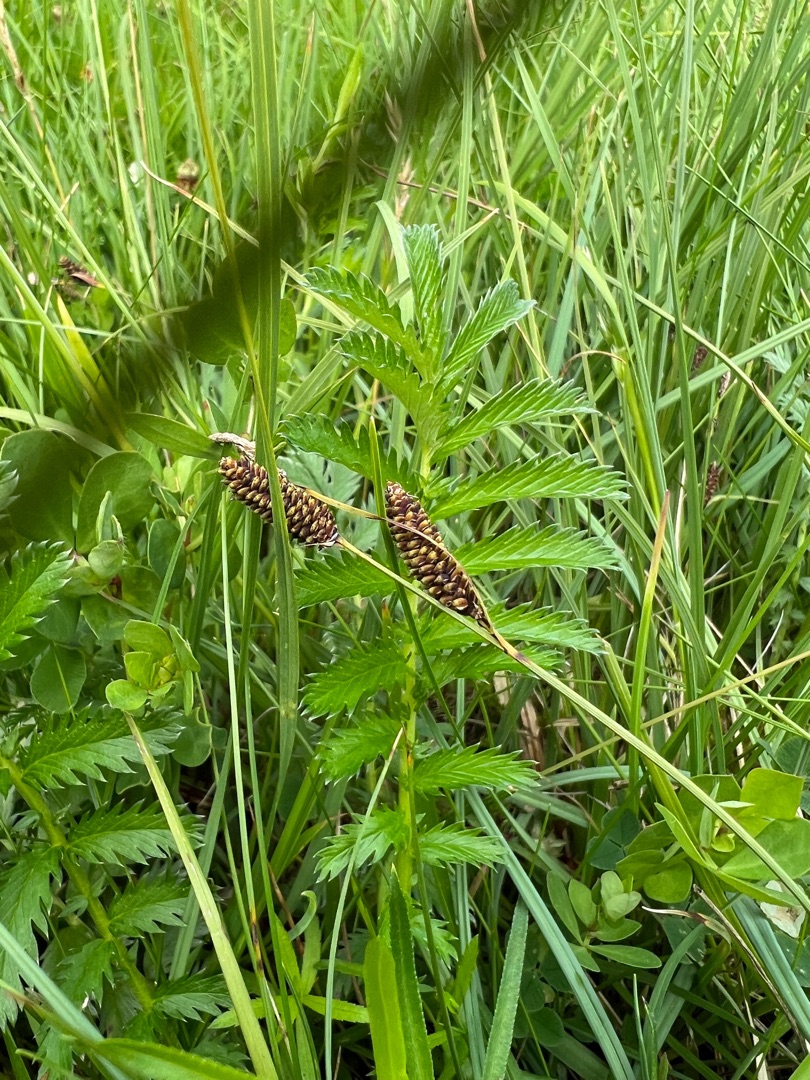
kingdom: Plantae
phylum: Tracheophyta
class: Liliopsida
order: Poales
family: Cyperaceae
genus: Carex
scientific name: Carex nigra
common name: Almindelig star
